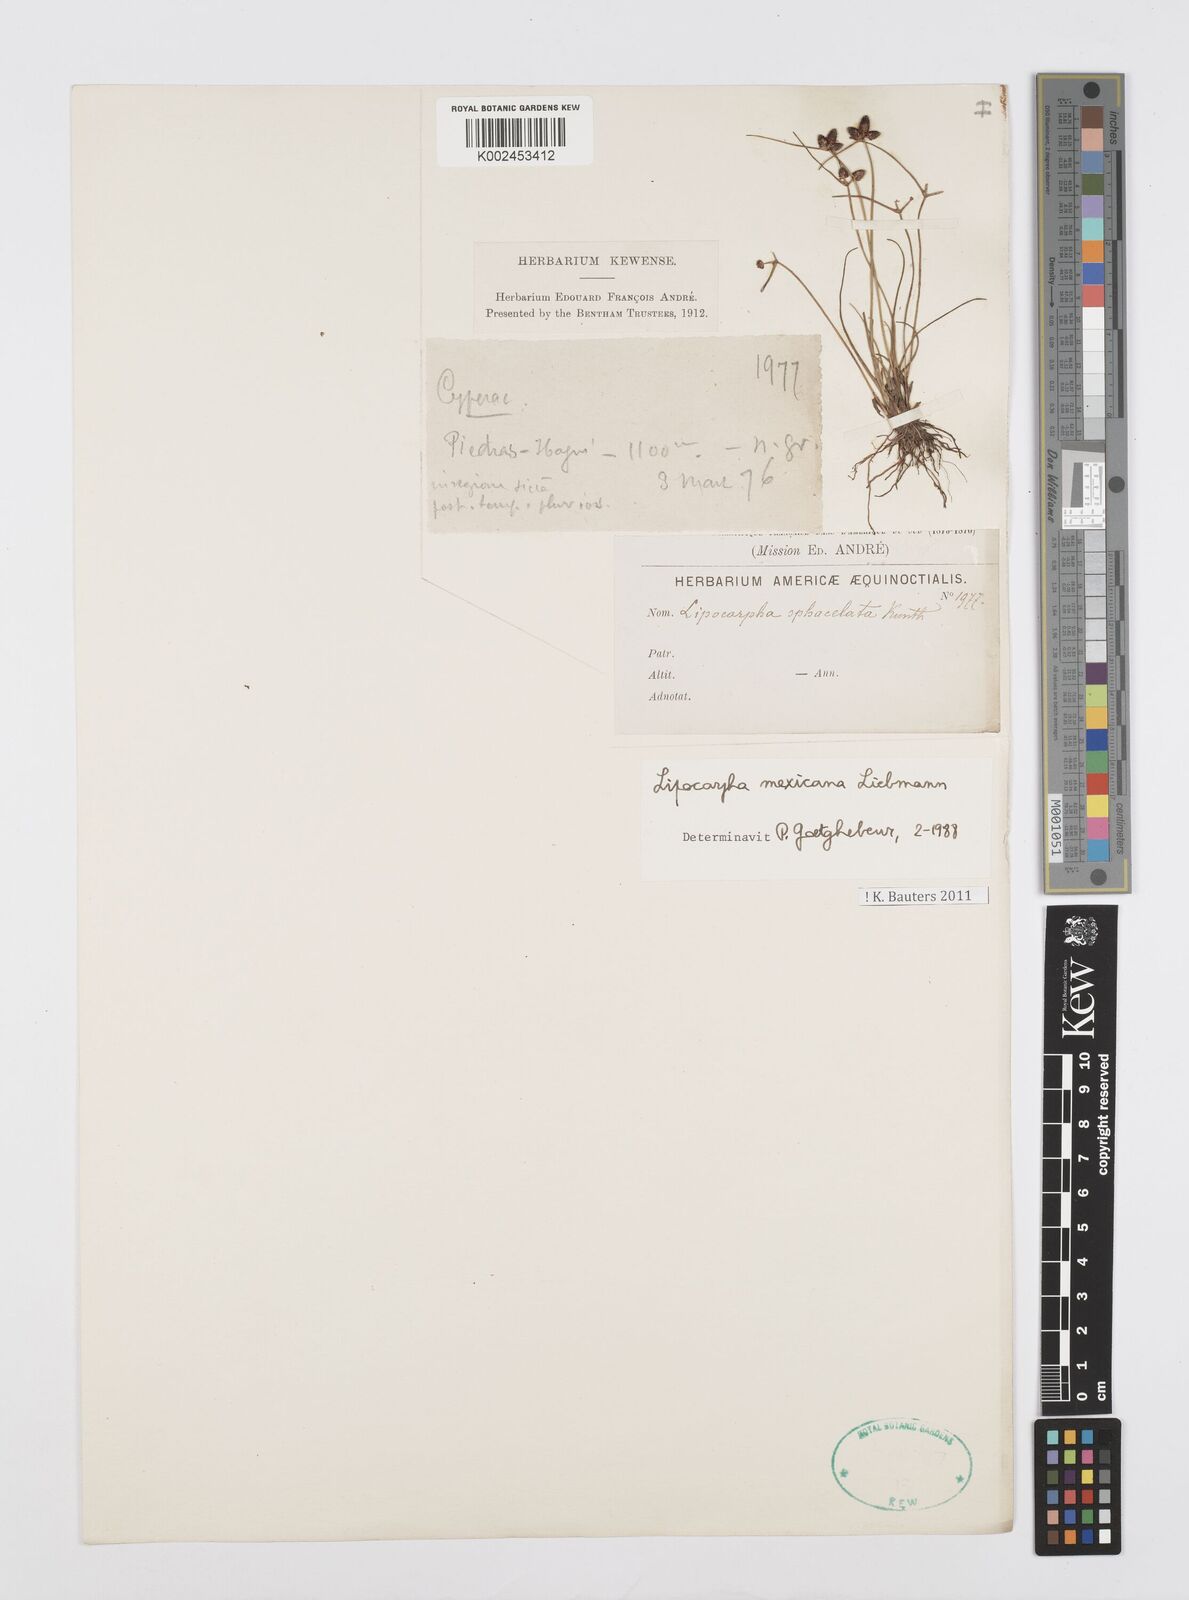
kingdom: Plantae
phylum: Tracheophyta
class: Liliopsida
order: Poales
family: Cyperaceae
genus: Cyperus
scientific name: Cyperus digitatus
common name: Finger flatsedge
